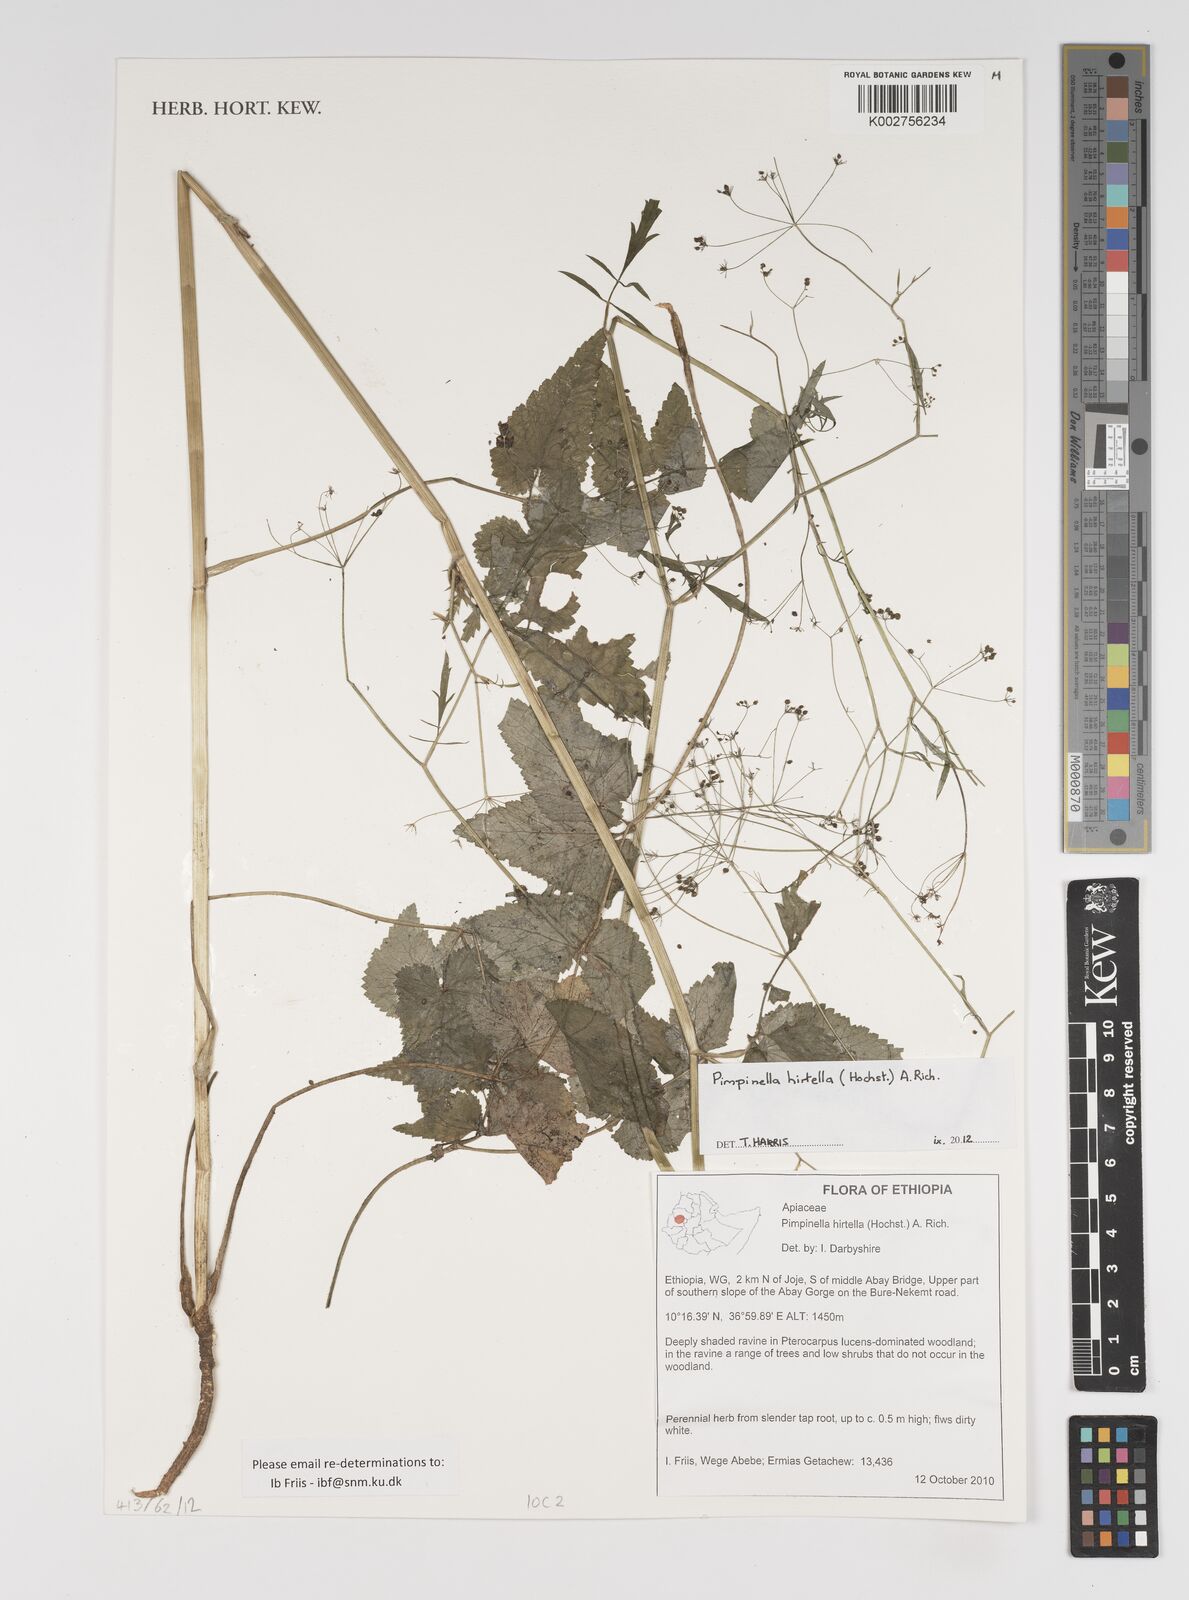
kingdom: Plantae
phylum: Tracheophyta
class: Magnoliopsida
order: Apiales
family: Apiaceae
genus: Pimpinella
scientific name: Pimpinella hirtella
